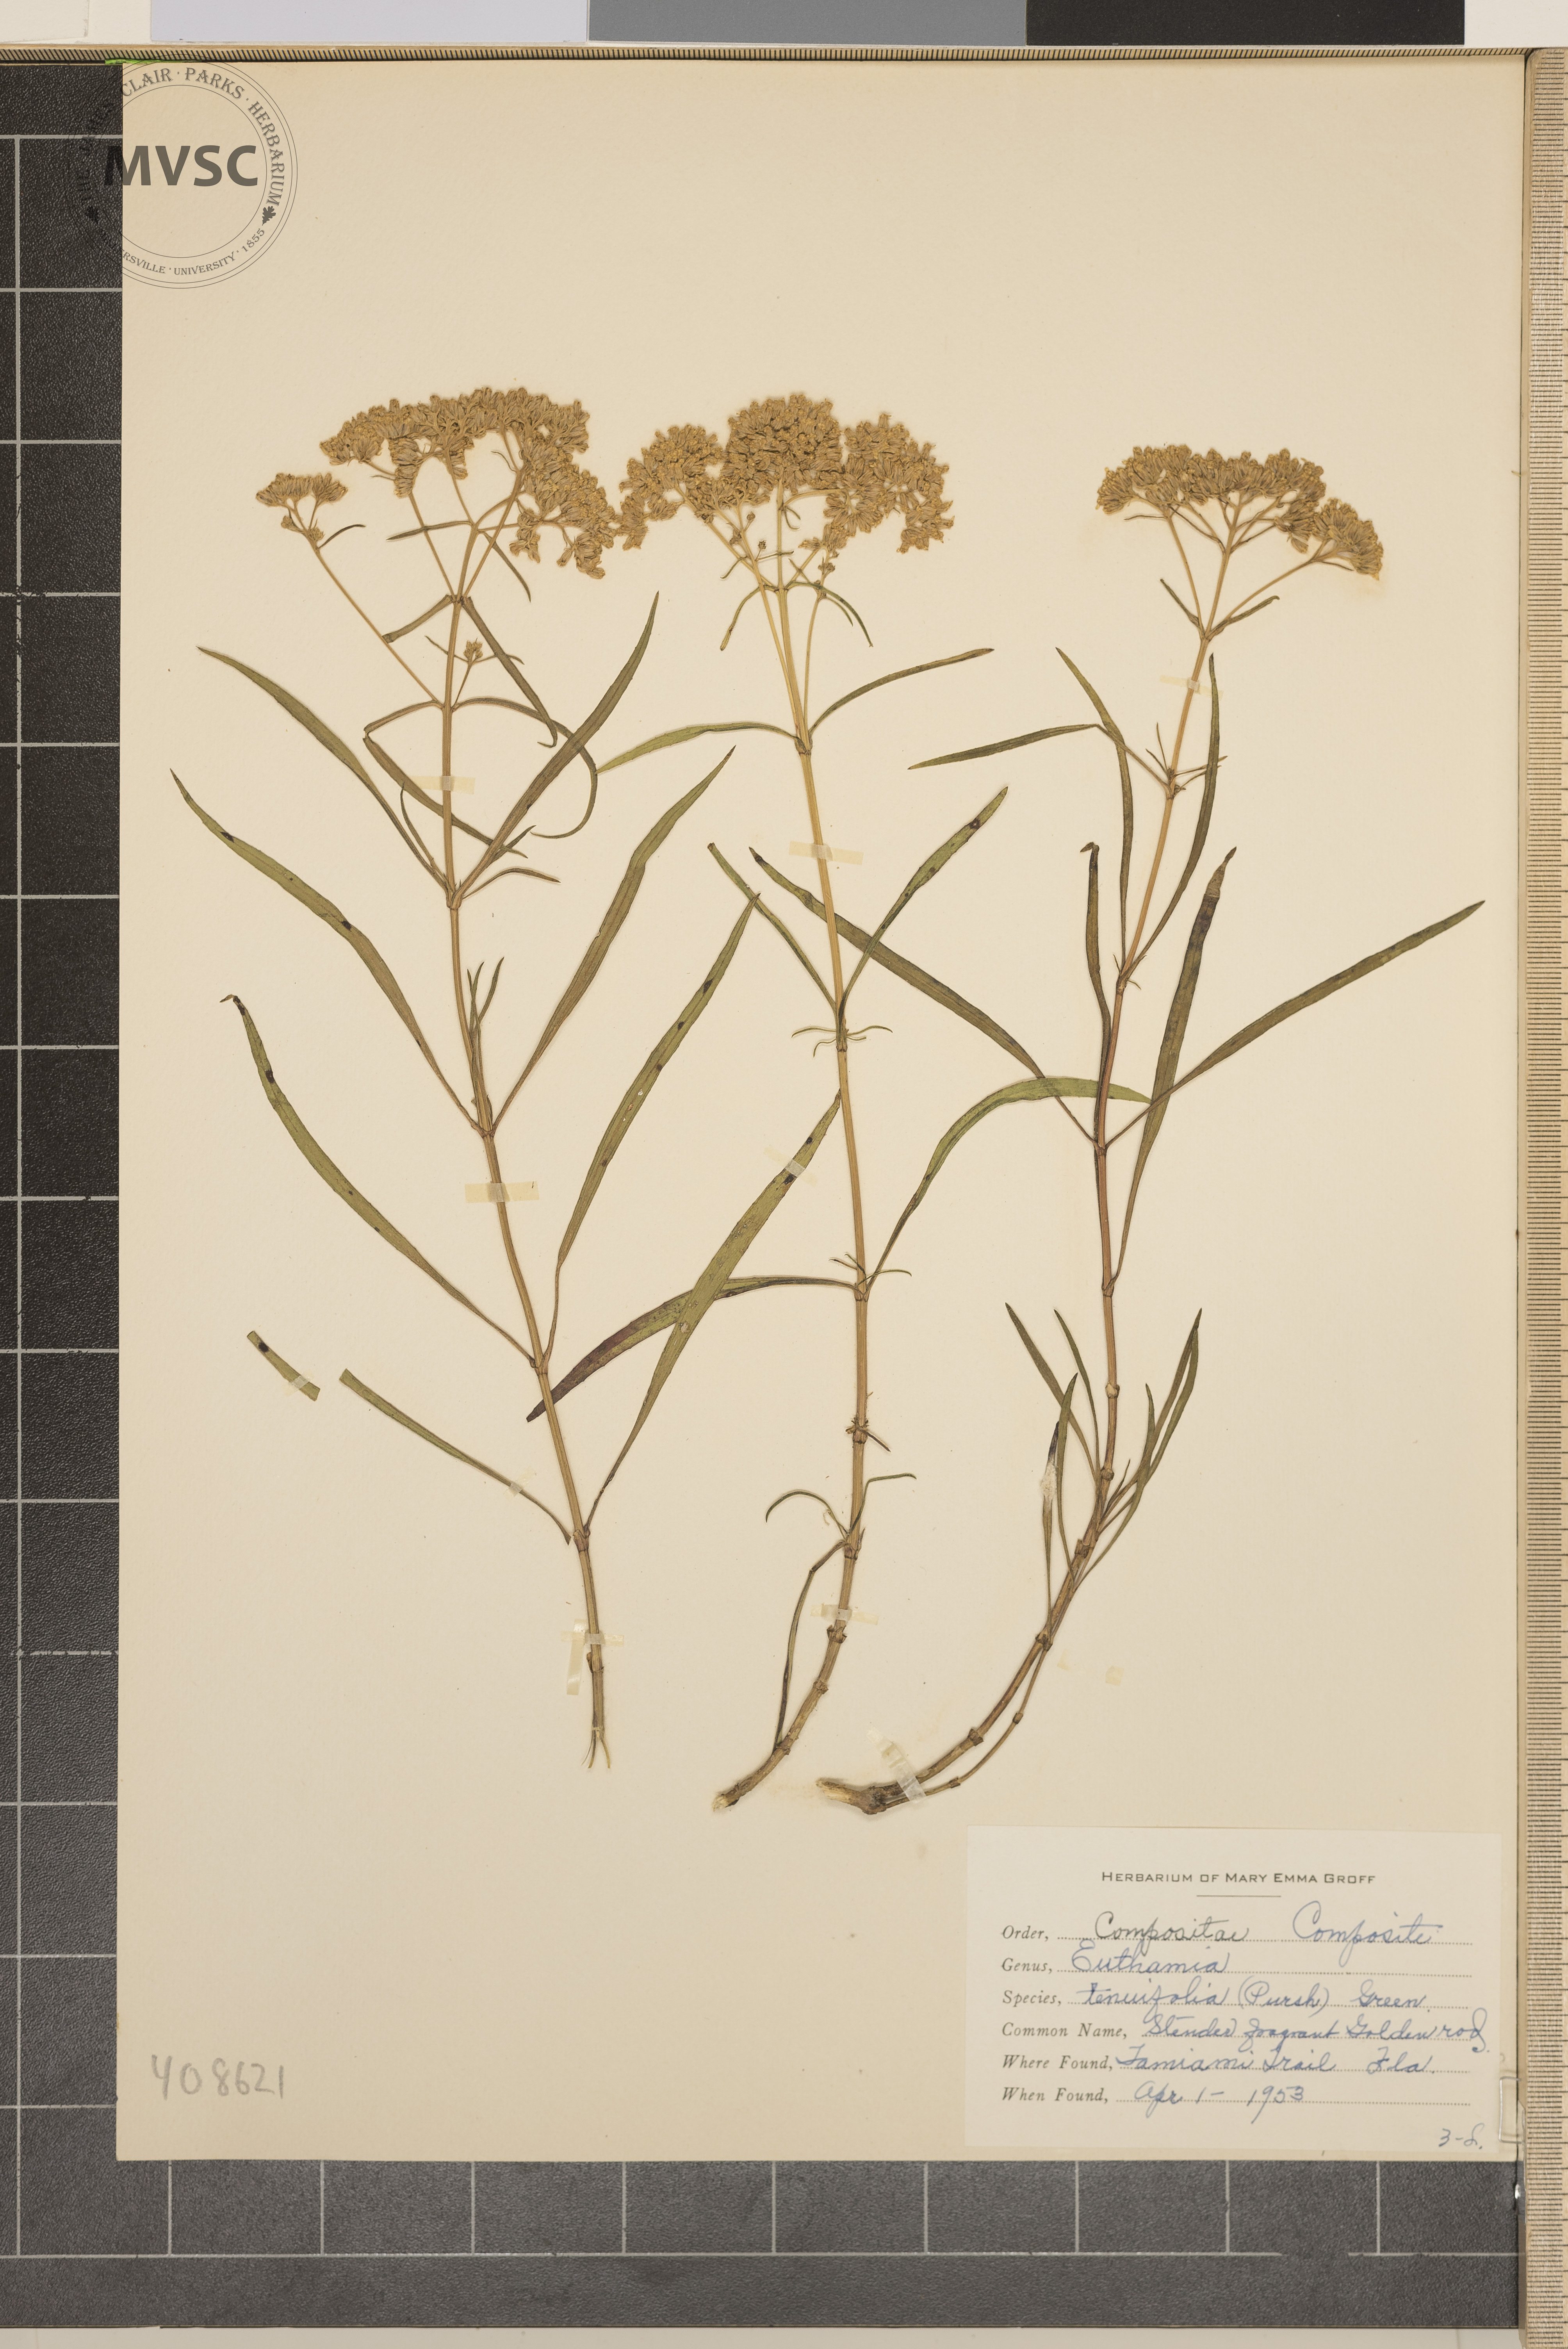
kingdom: Plantae
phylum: Tracheophyta
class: Magnoliopsida
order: Asterales
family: Asteraceae
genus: Euthamia
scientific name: Euthamia caroliniana
